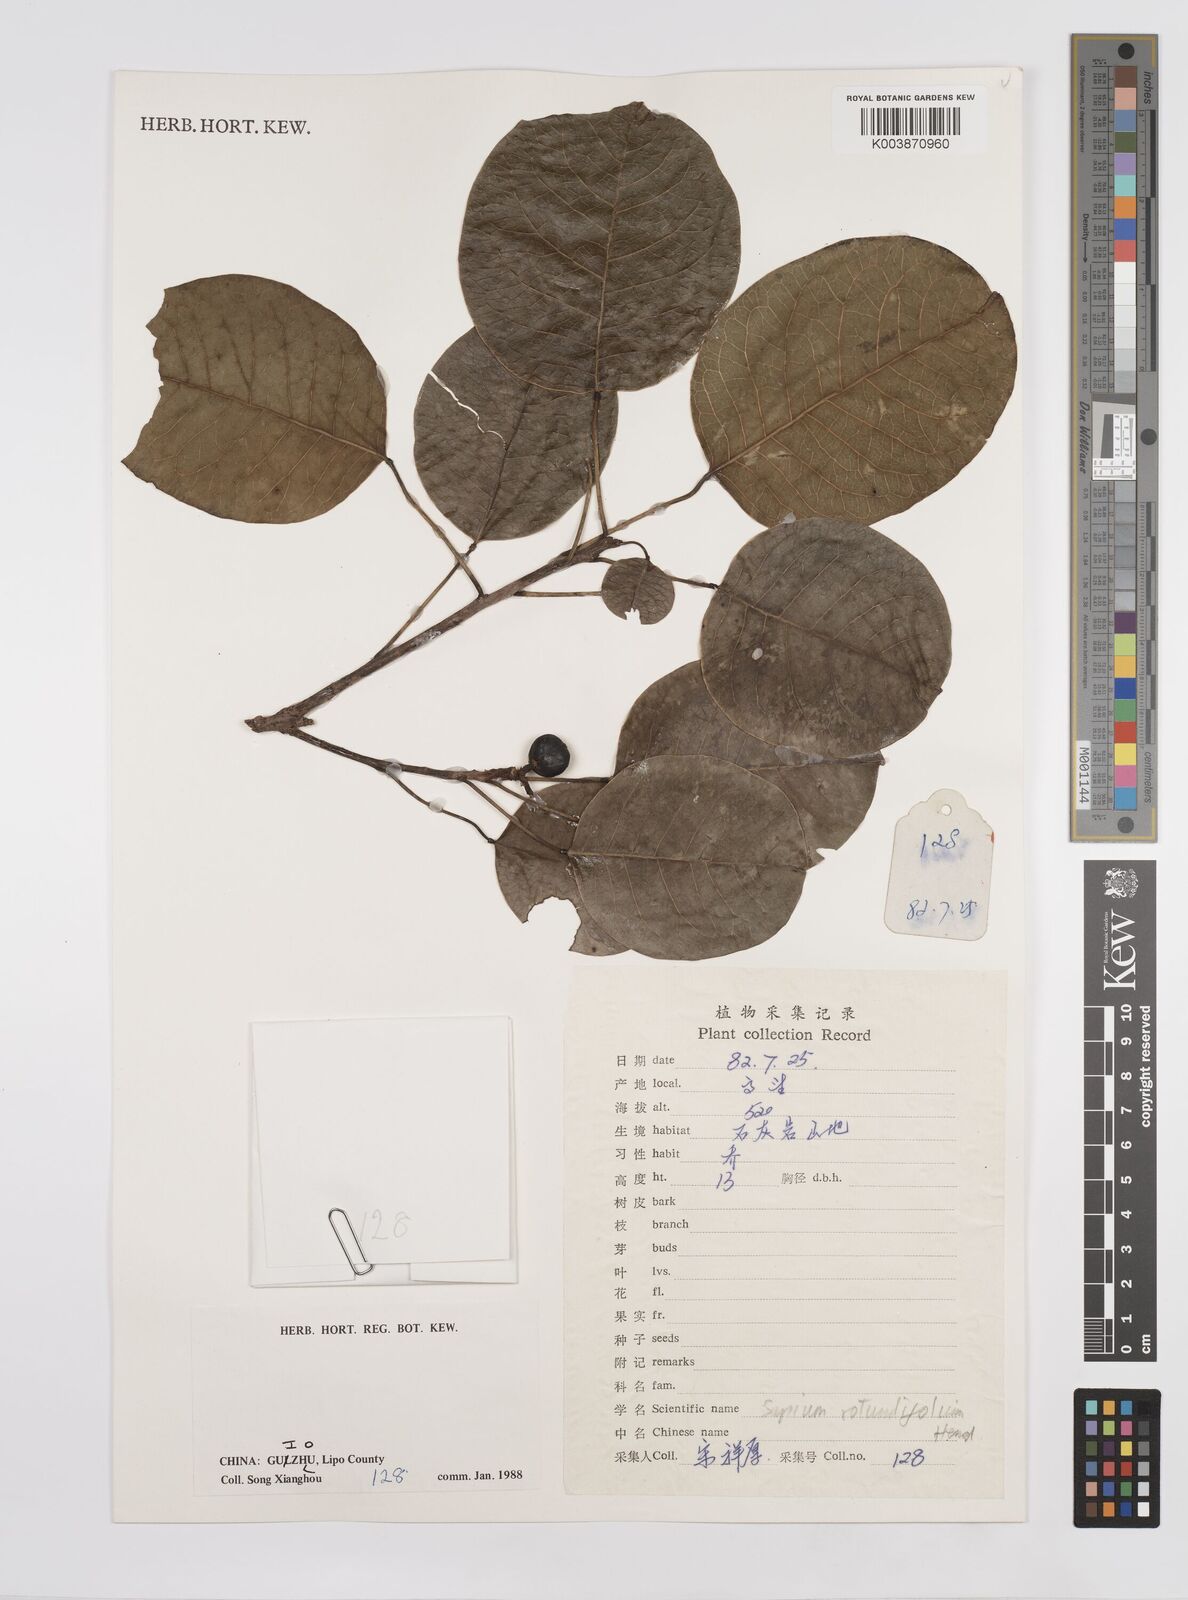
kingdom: Plantae
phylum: Tracheophyta
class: Magnoliopsida
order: Malpighiales
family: Euphorbiaceae
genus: Triadica
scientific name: Triadica rotundifolia
